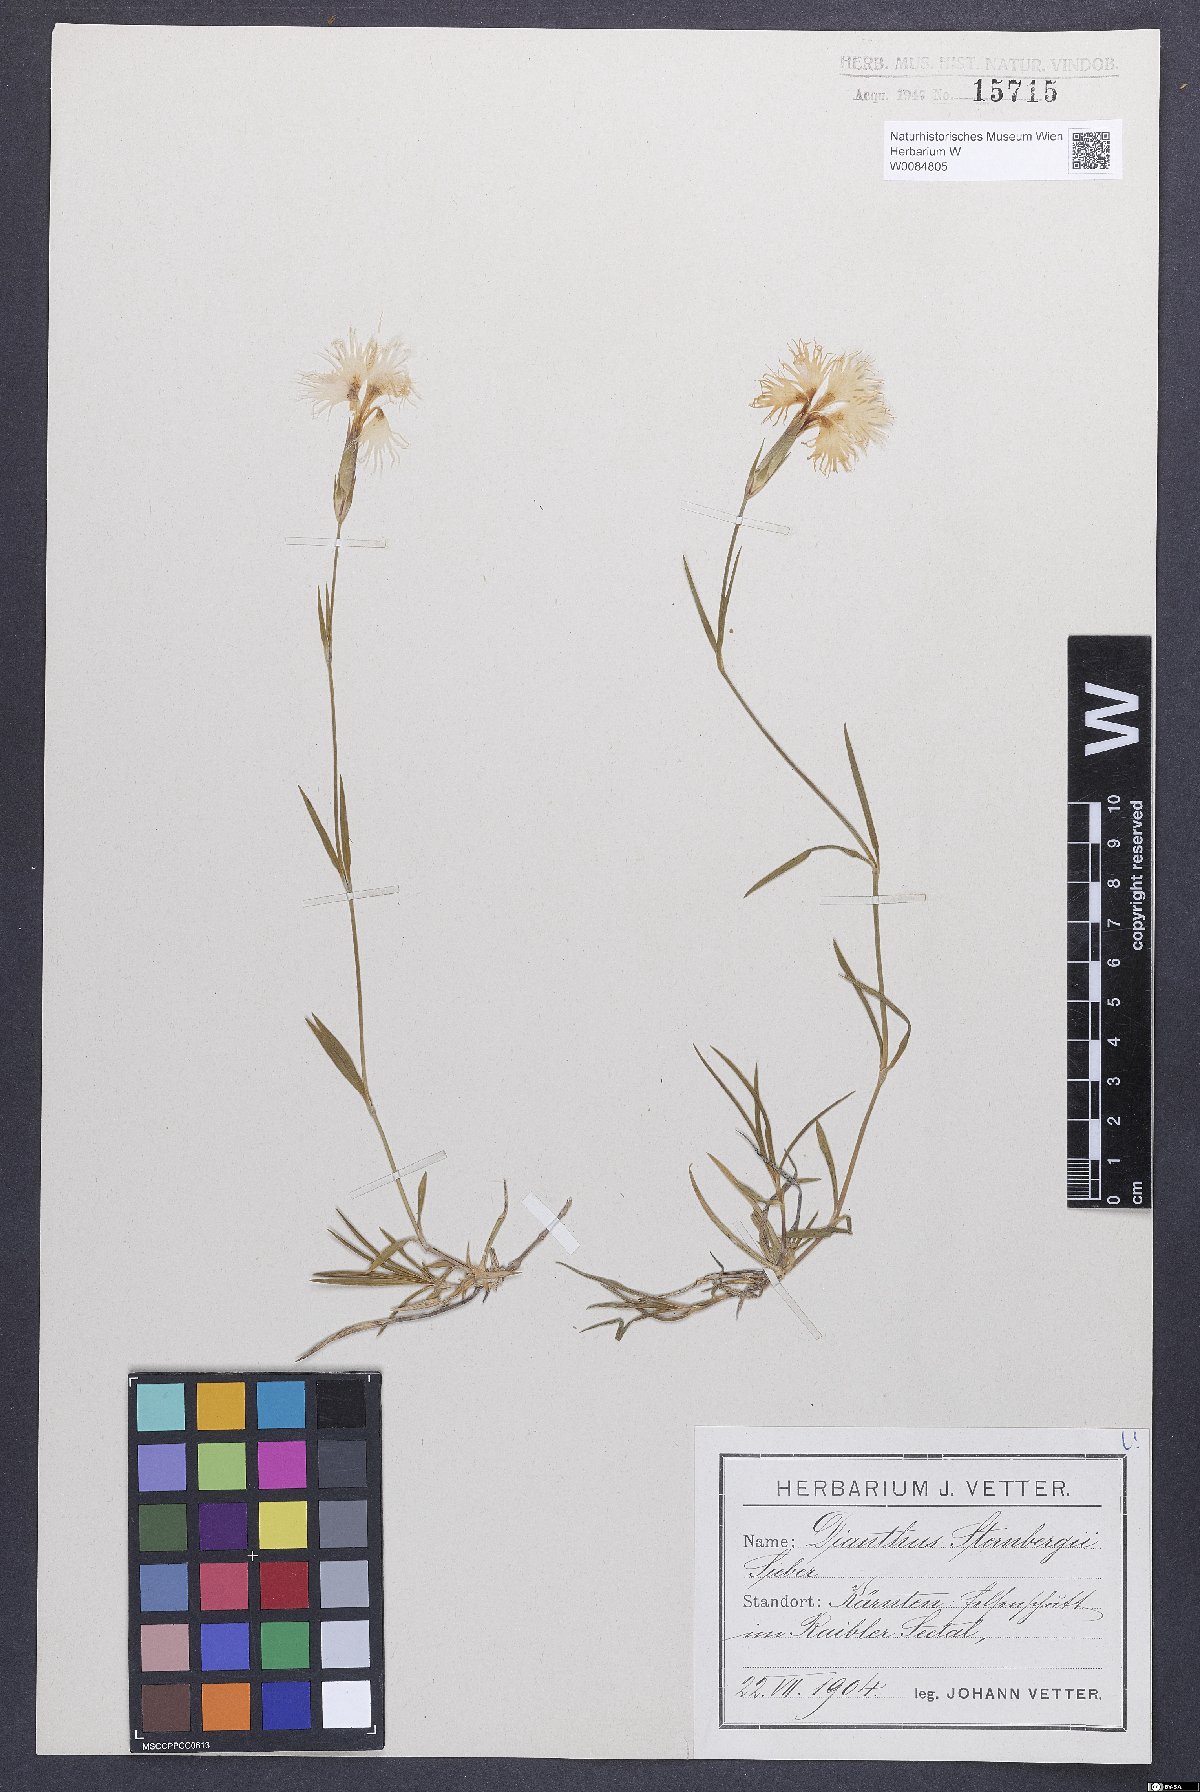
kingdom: Plantae
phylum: Tracheophyta
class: Magnoliopsida
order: Caryophyllales
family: Caryophyllaceae
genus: Dianthus
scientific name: Dianthus monspessulanus
